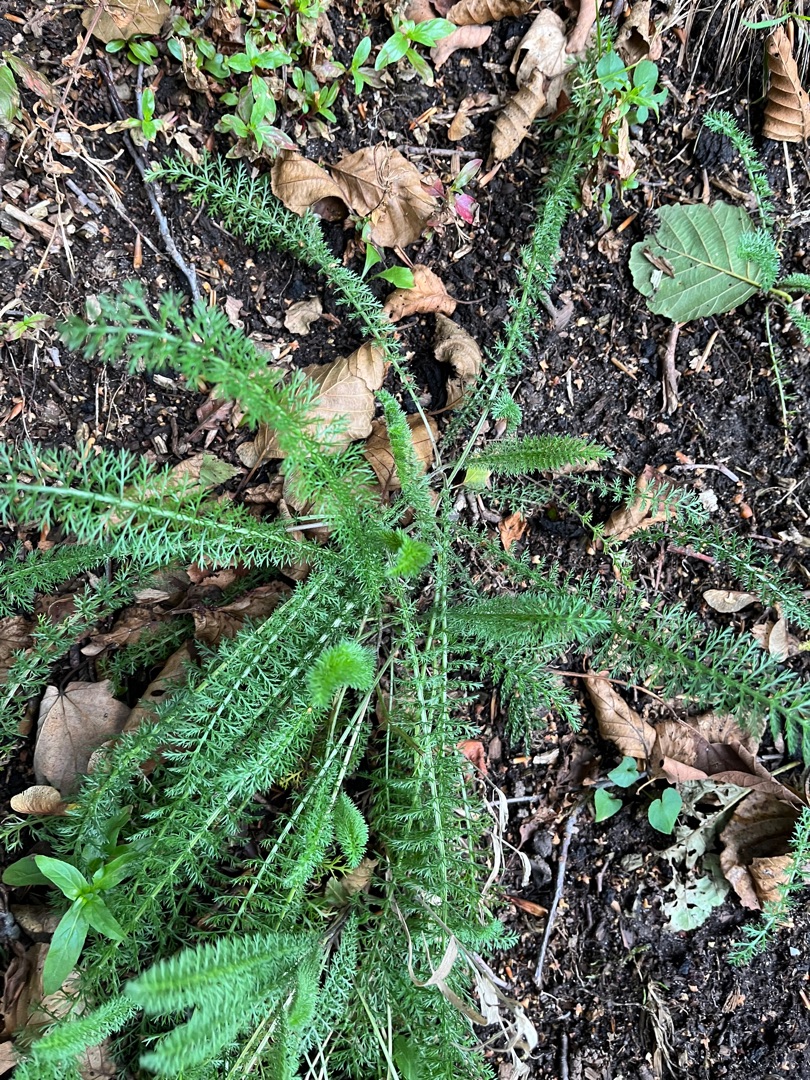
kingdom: Plantae
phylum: Tracheophyta
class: Magnoliopsida
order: Asterales
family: Asteraceae
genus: Achillea
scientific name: Achillea millefolium
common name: Almindelig røllike
